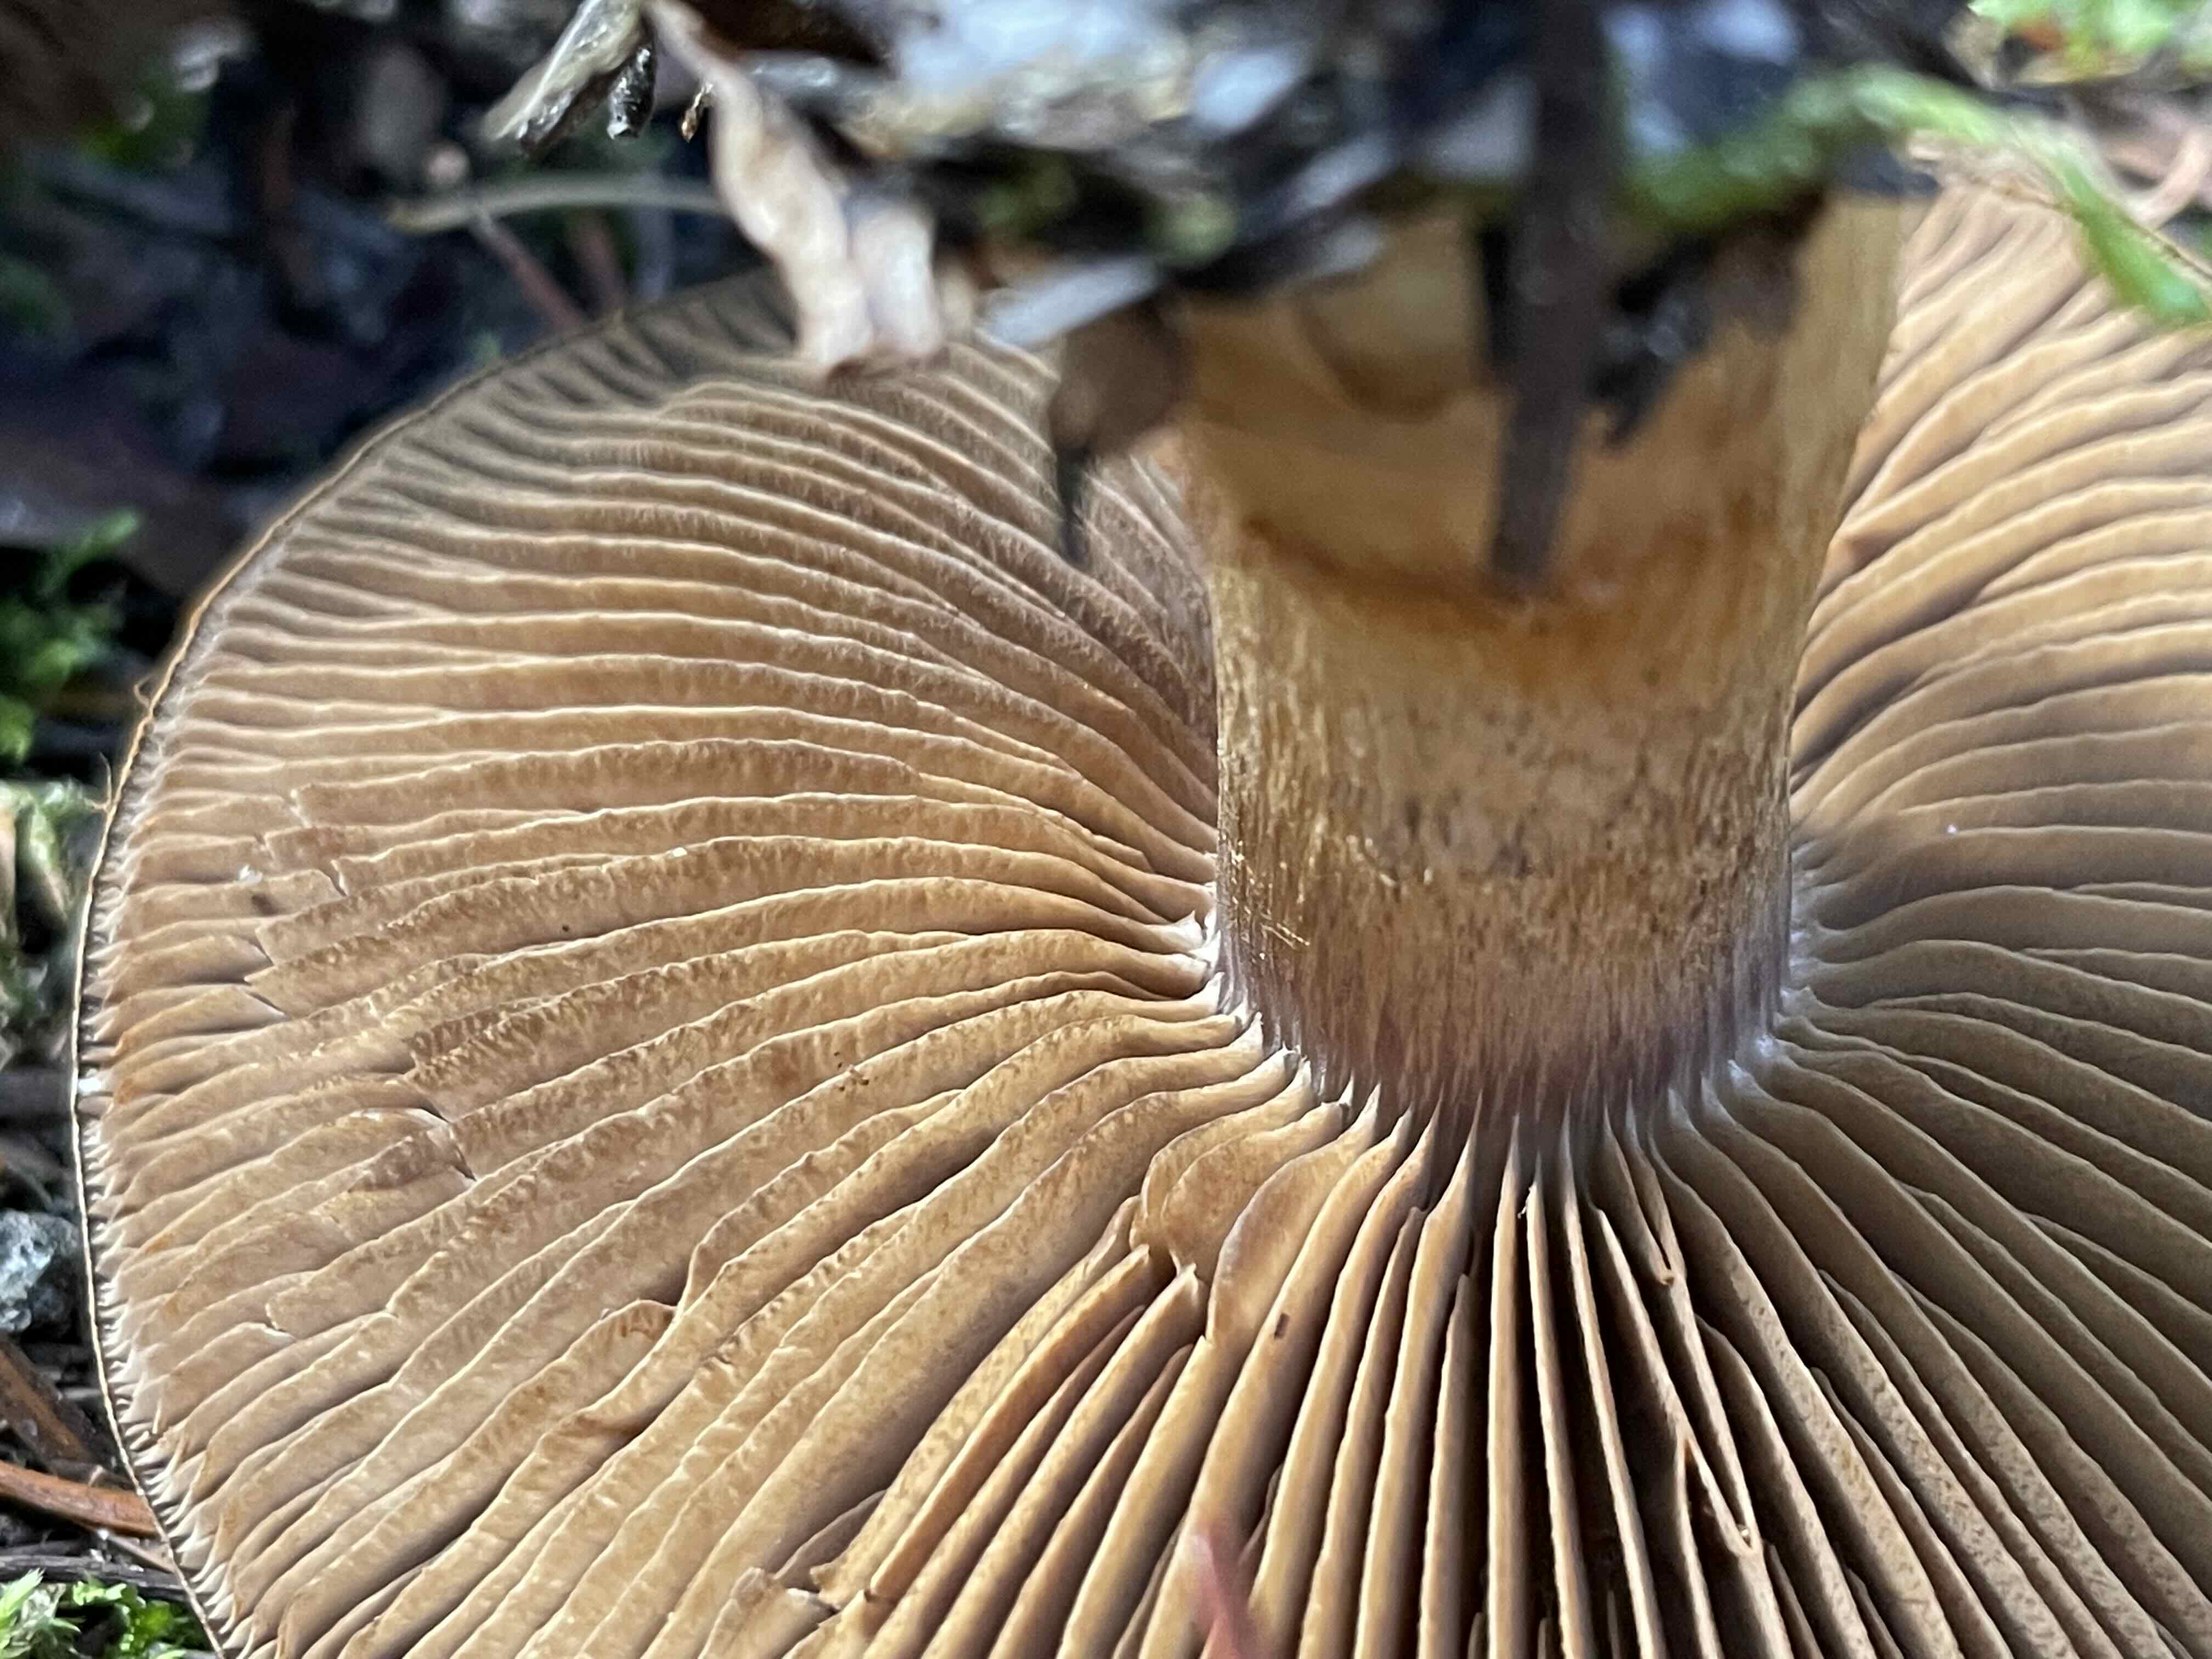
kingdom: Fungi
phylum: Basidiomycota
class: Agaricomycetes
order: Agaricales
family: Cortinariaceae
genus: Cortinarius
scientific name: Cortinarius largus
